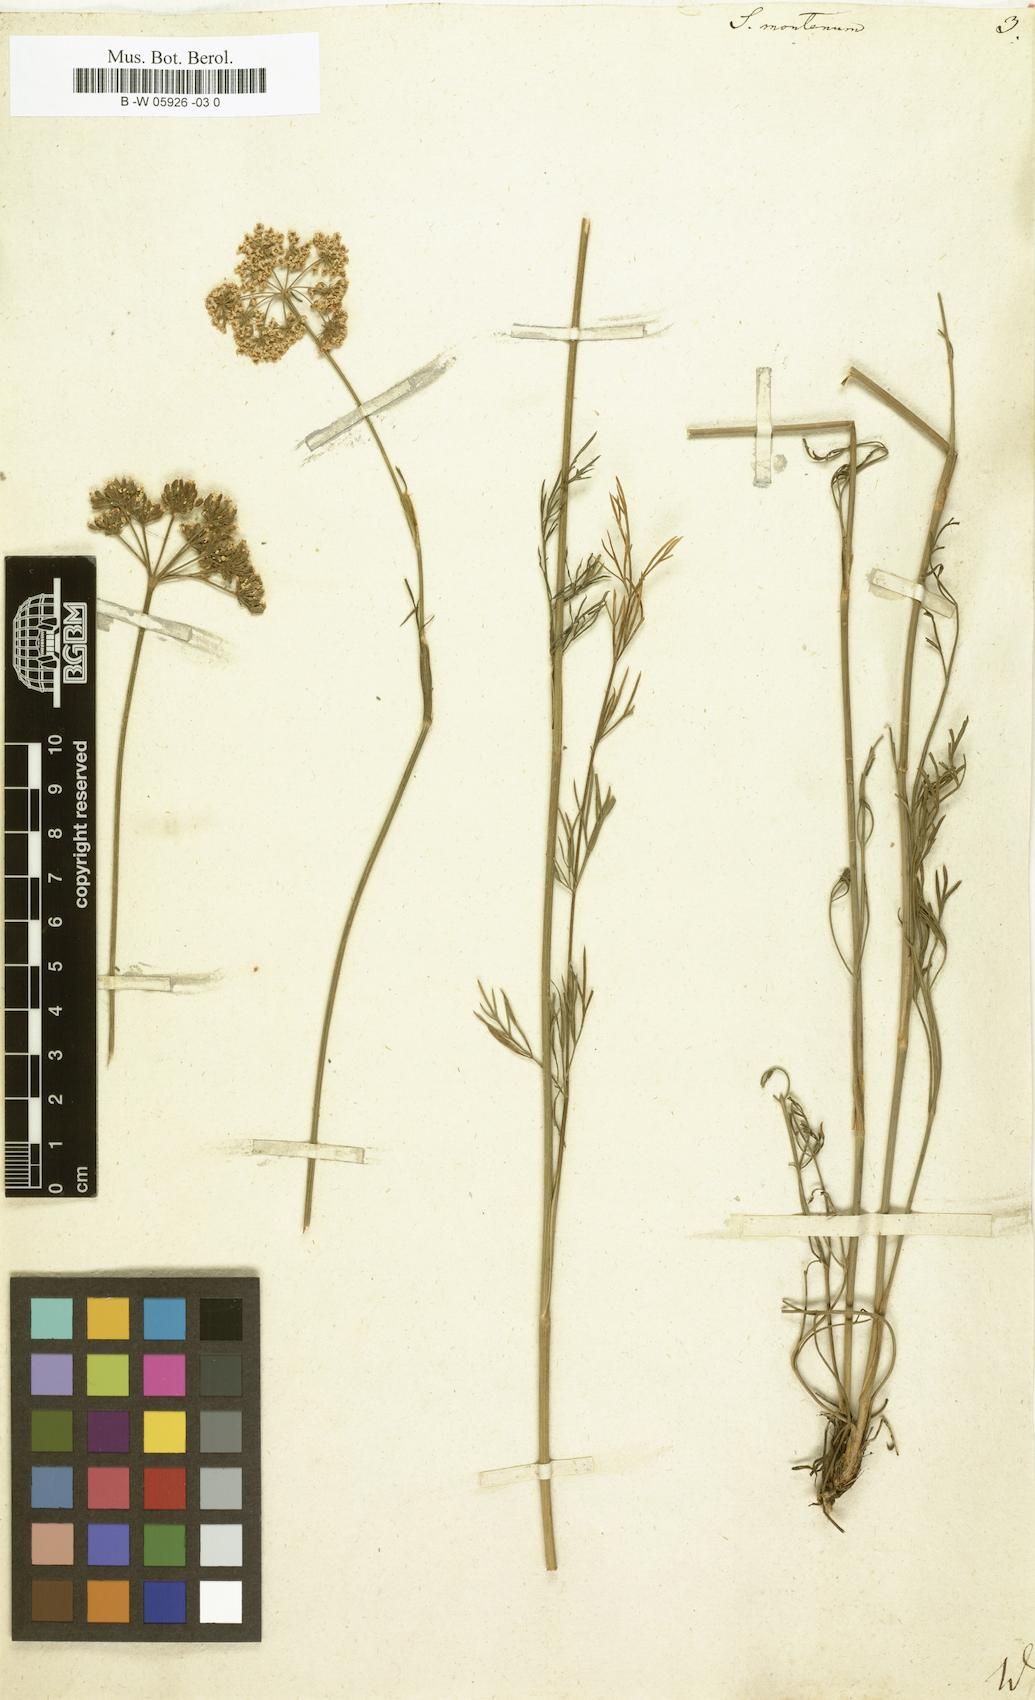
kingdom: Plantae
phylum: Tracheophyta
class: Magnoliopsida
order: Apiales
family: Apiaceae
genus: Seseli
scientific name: Seseli montanum
